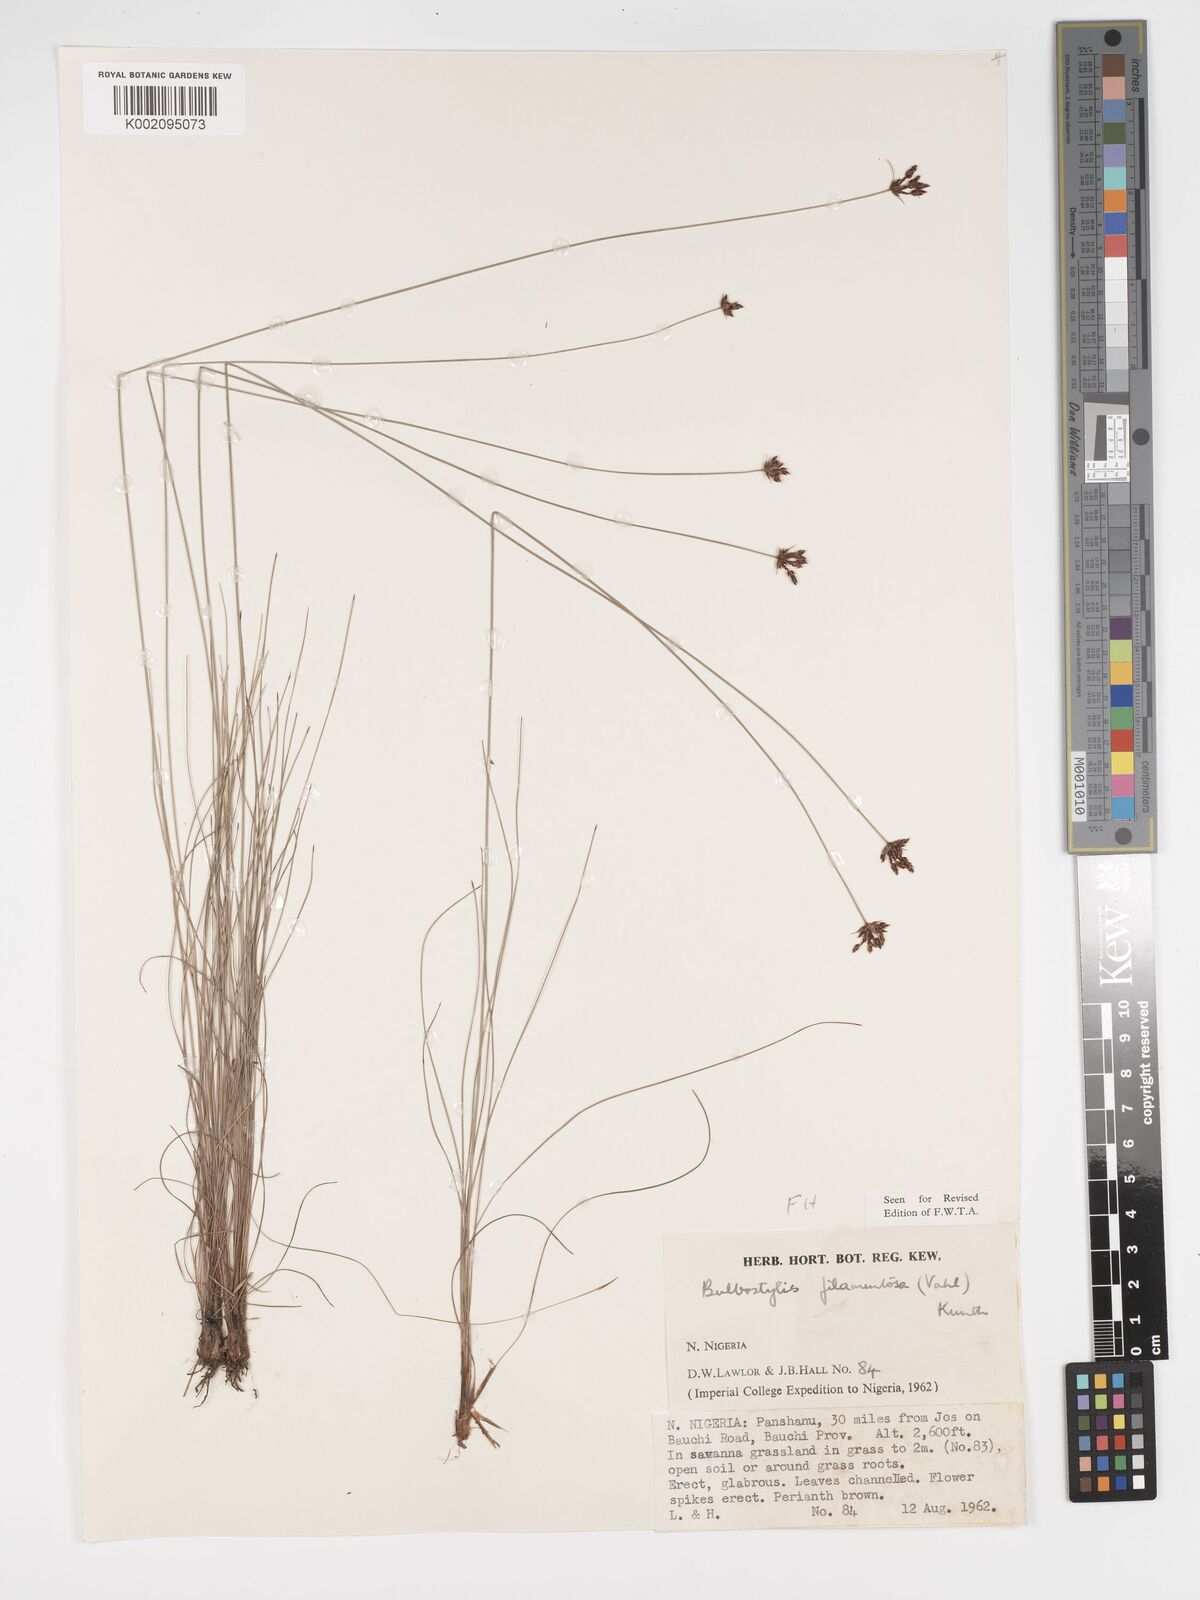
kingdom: Plantae
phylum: Tracheophyta
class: Liliopsida
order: Poales
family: Cyperaceae
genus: Bulbostylis
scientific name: Bulbostylis scabricaulis
